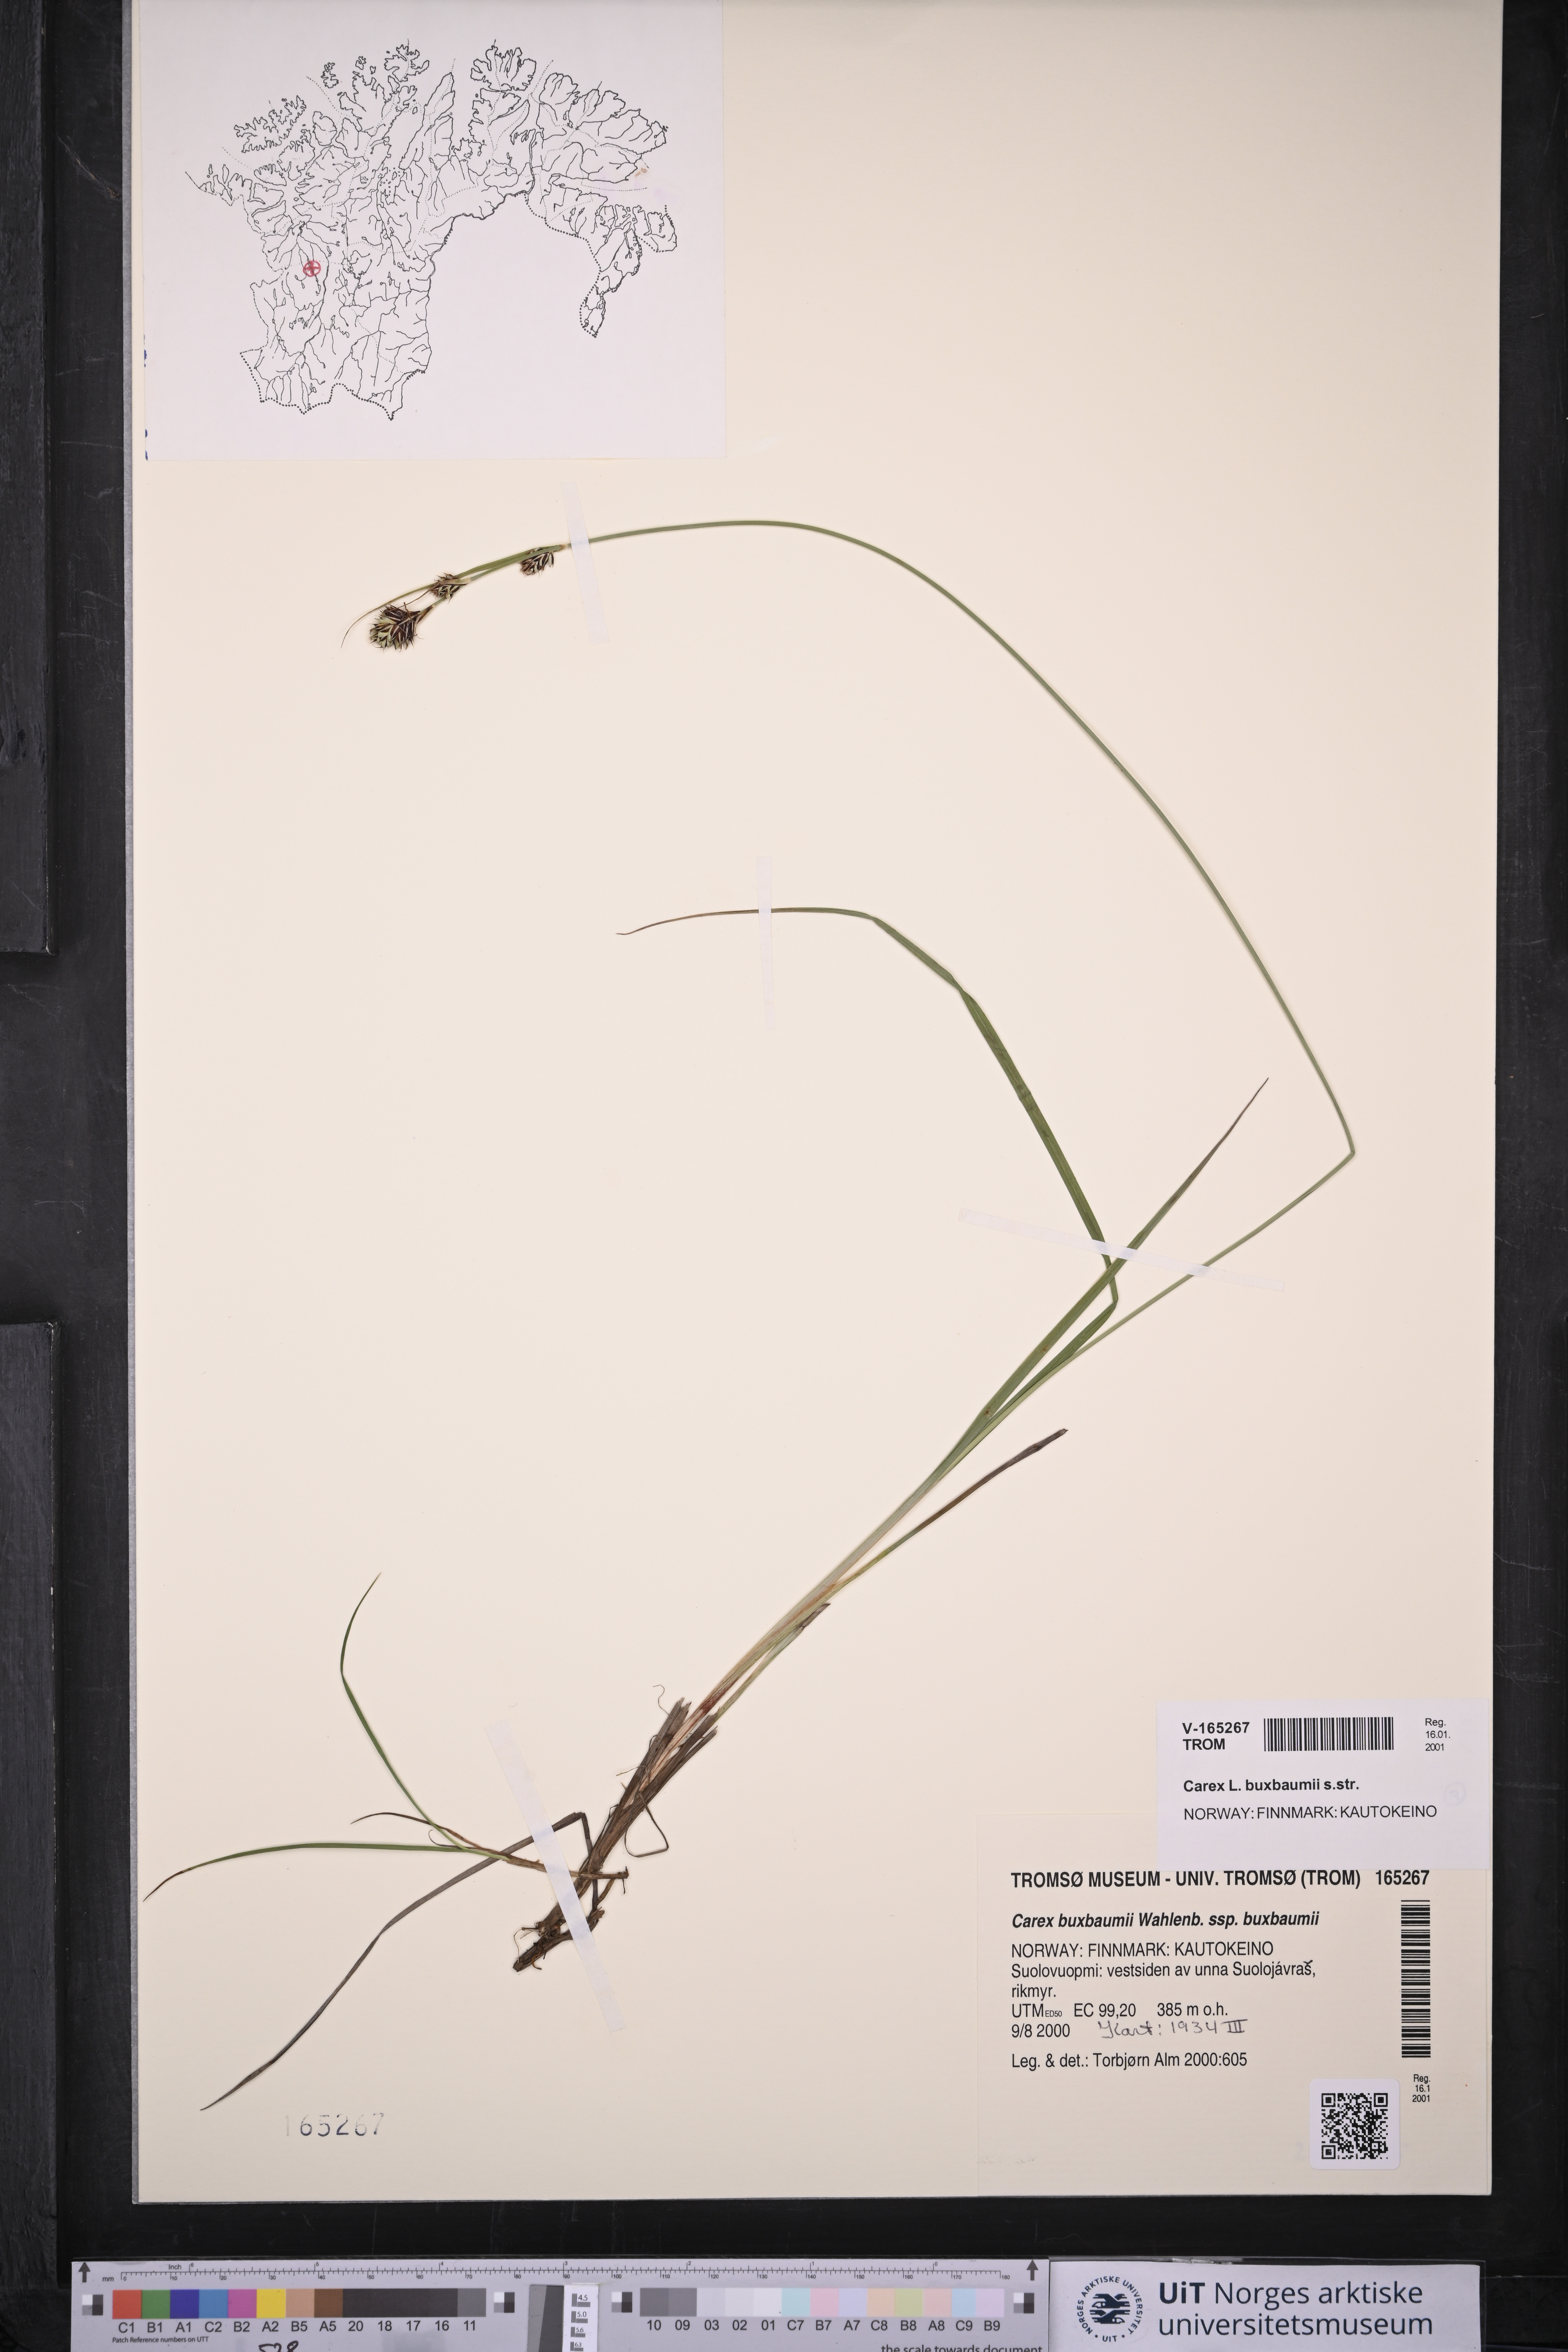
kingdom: Plantae
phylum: Tracheophyta
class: Liliopsida
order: Poales
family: Cyperaceae
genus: Carex
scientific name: Carex buxbaumii
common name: Club sedge
